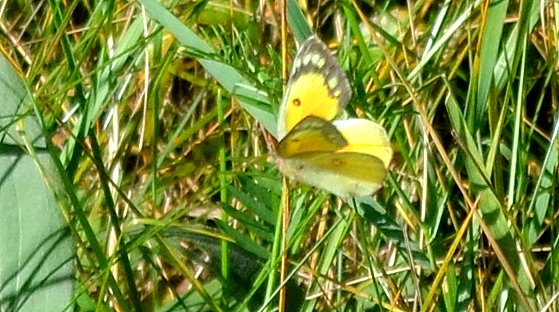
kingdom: Animalia
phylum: Arthropoda
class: Insecta
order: Lepidoptera
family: Pieridae
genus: Colias
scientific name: Colias eurytheme
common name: Orange Sulphur
